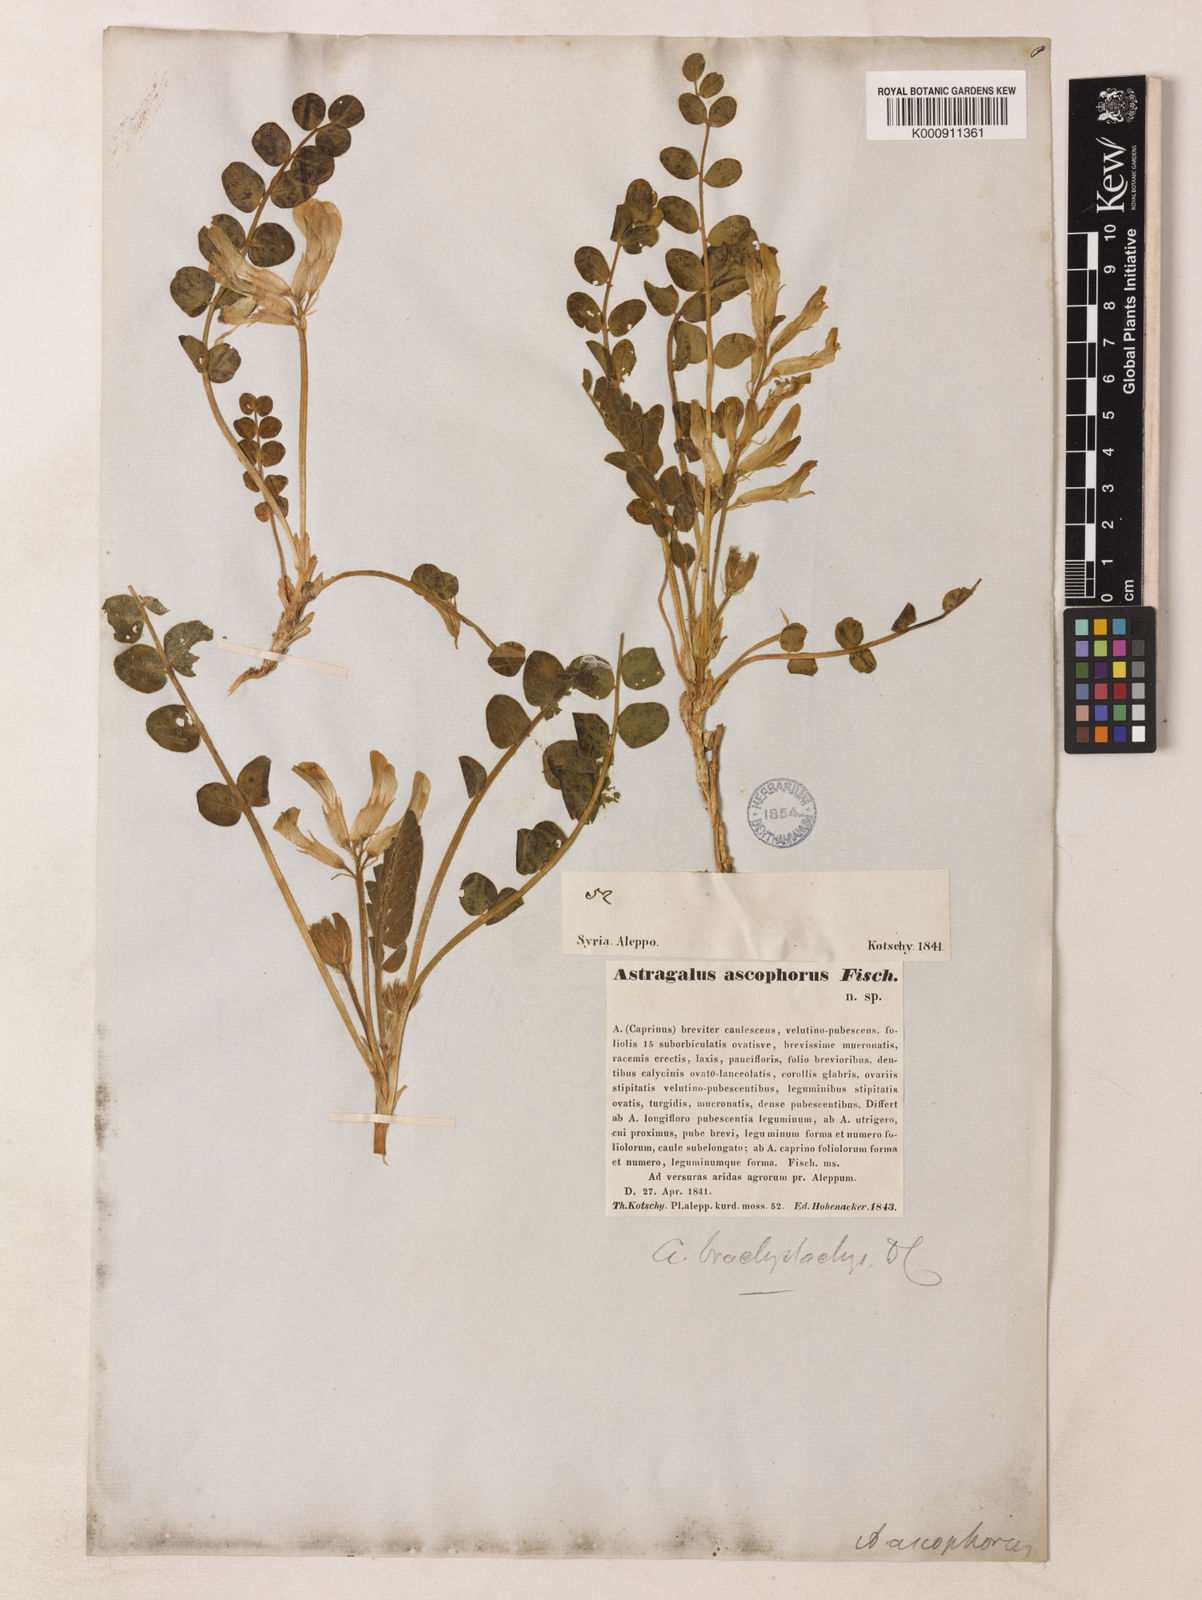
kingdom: Plantae
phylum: Tracheophyta
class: Magnoliopsida
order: Fabales
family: Fabaceae
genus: Astragalus
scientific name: Astragalus brachystachys
